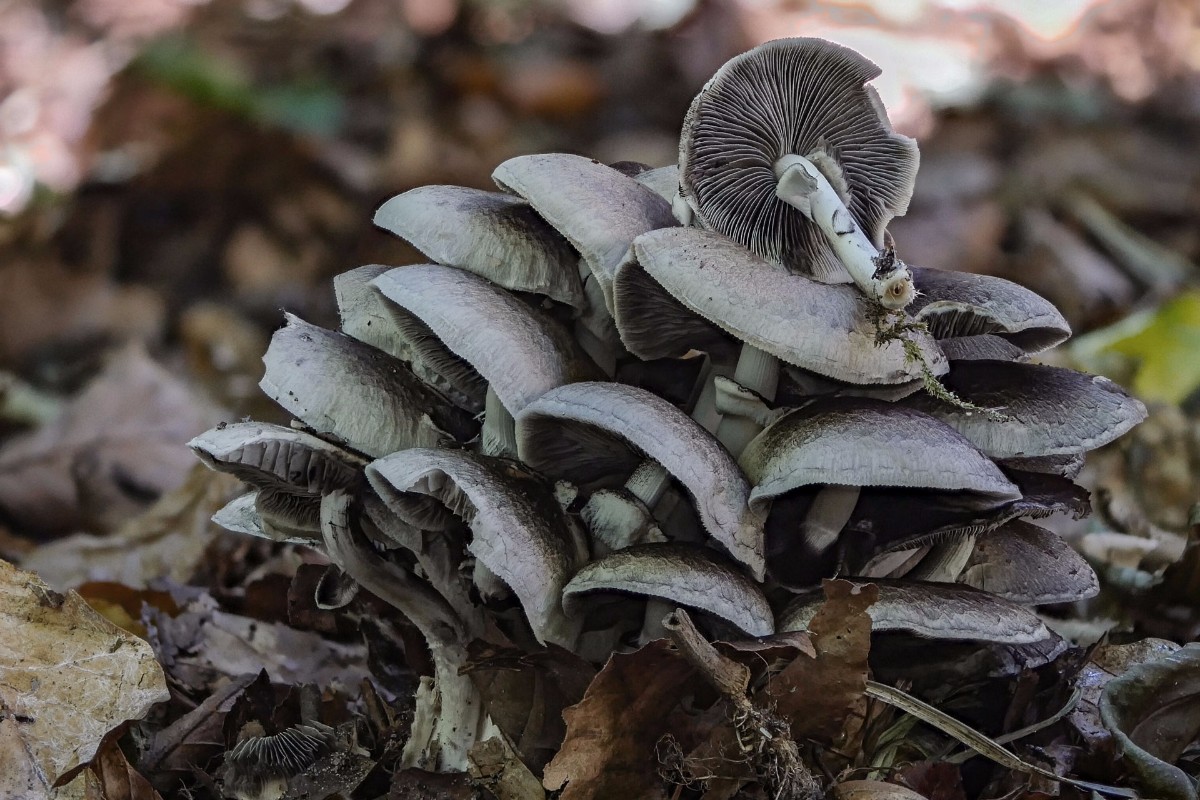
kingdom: Fungi
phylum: Basidiomycota
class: Agaricomycetes
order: Agaricales
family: Psathyrellaceae
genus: Candolleomyces
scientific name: Candolleomyces leucotephrus
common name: askehvid mørkhat
